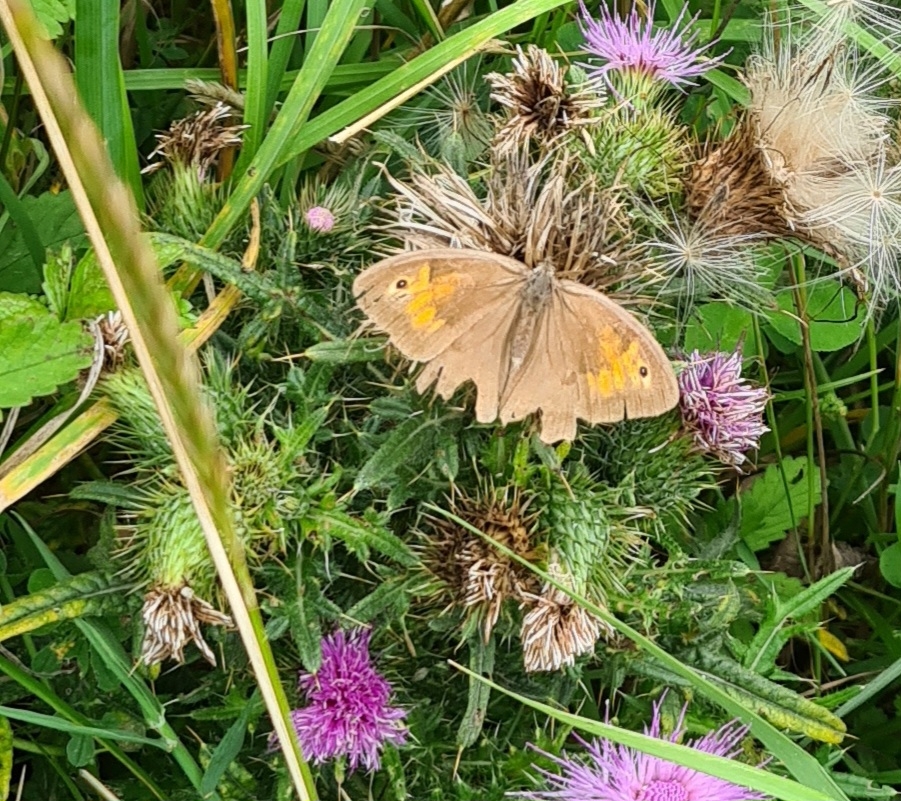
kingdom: Animalia
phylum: Arthropoda
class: Insecta
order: Lepidoptera
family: Nymphalidae
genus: Maniola
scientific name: Maniola jurtina
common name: Græsrandøje
